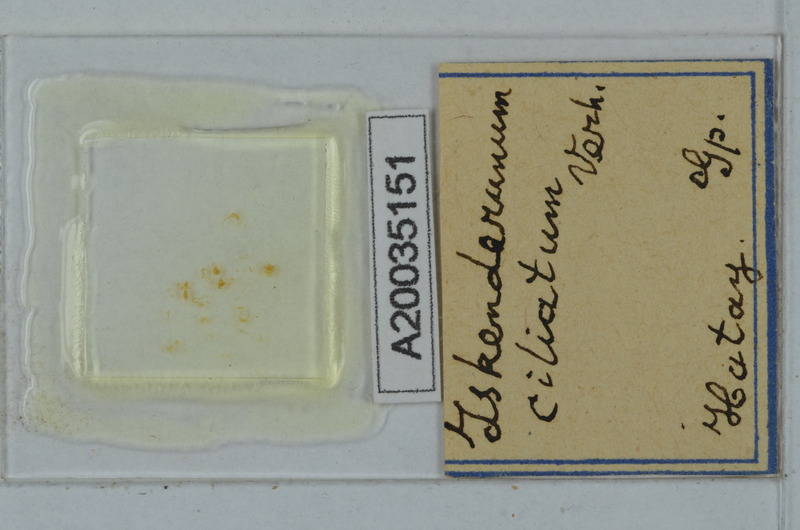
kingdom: Animalia
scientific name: Animalia
